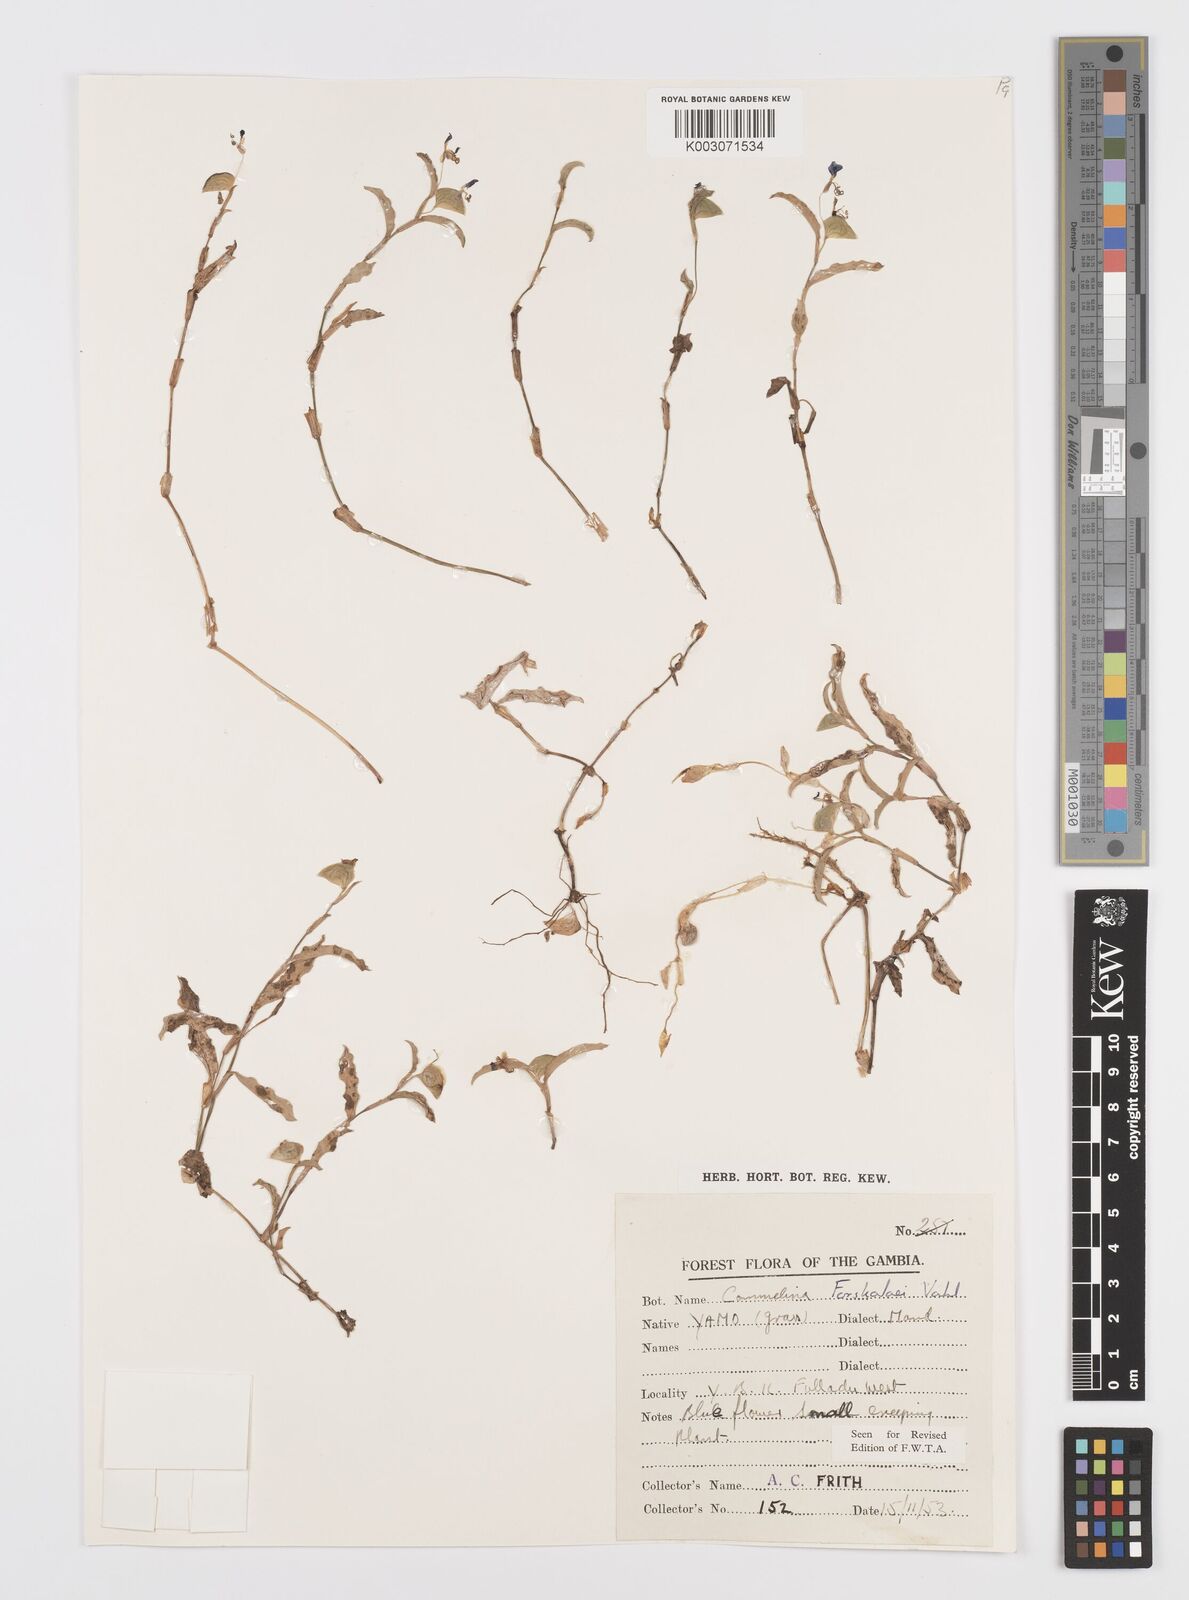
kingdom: Plantae
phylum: Tracheophyta
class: Liliopsida
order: Commelinales
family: Commelinaceae
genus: Commelina
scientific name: Commelina forskaolii
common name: Rat's ear
